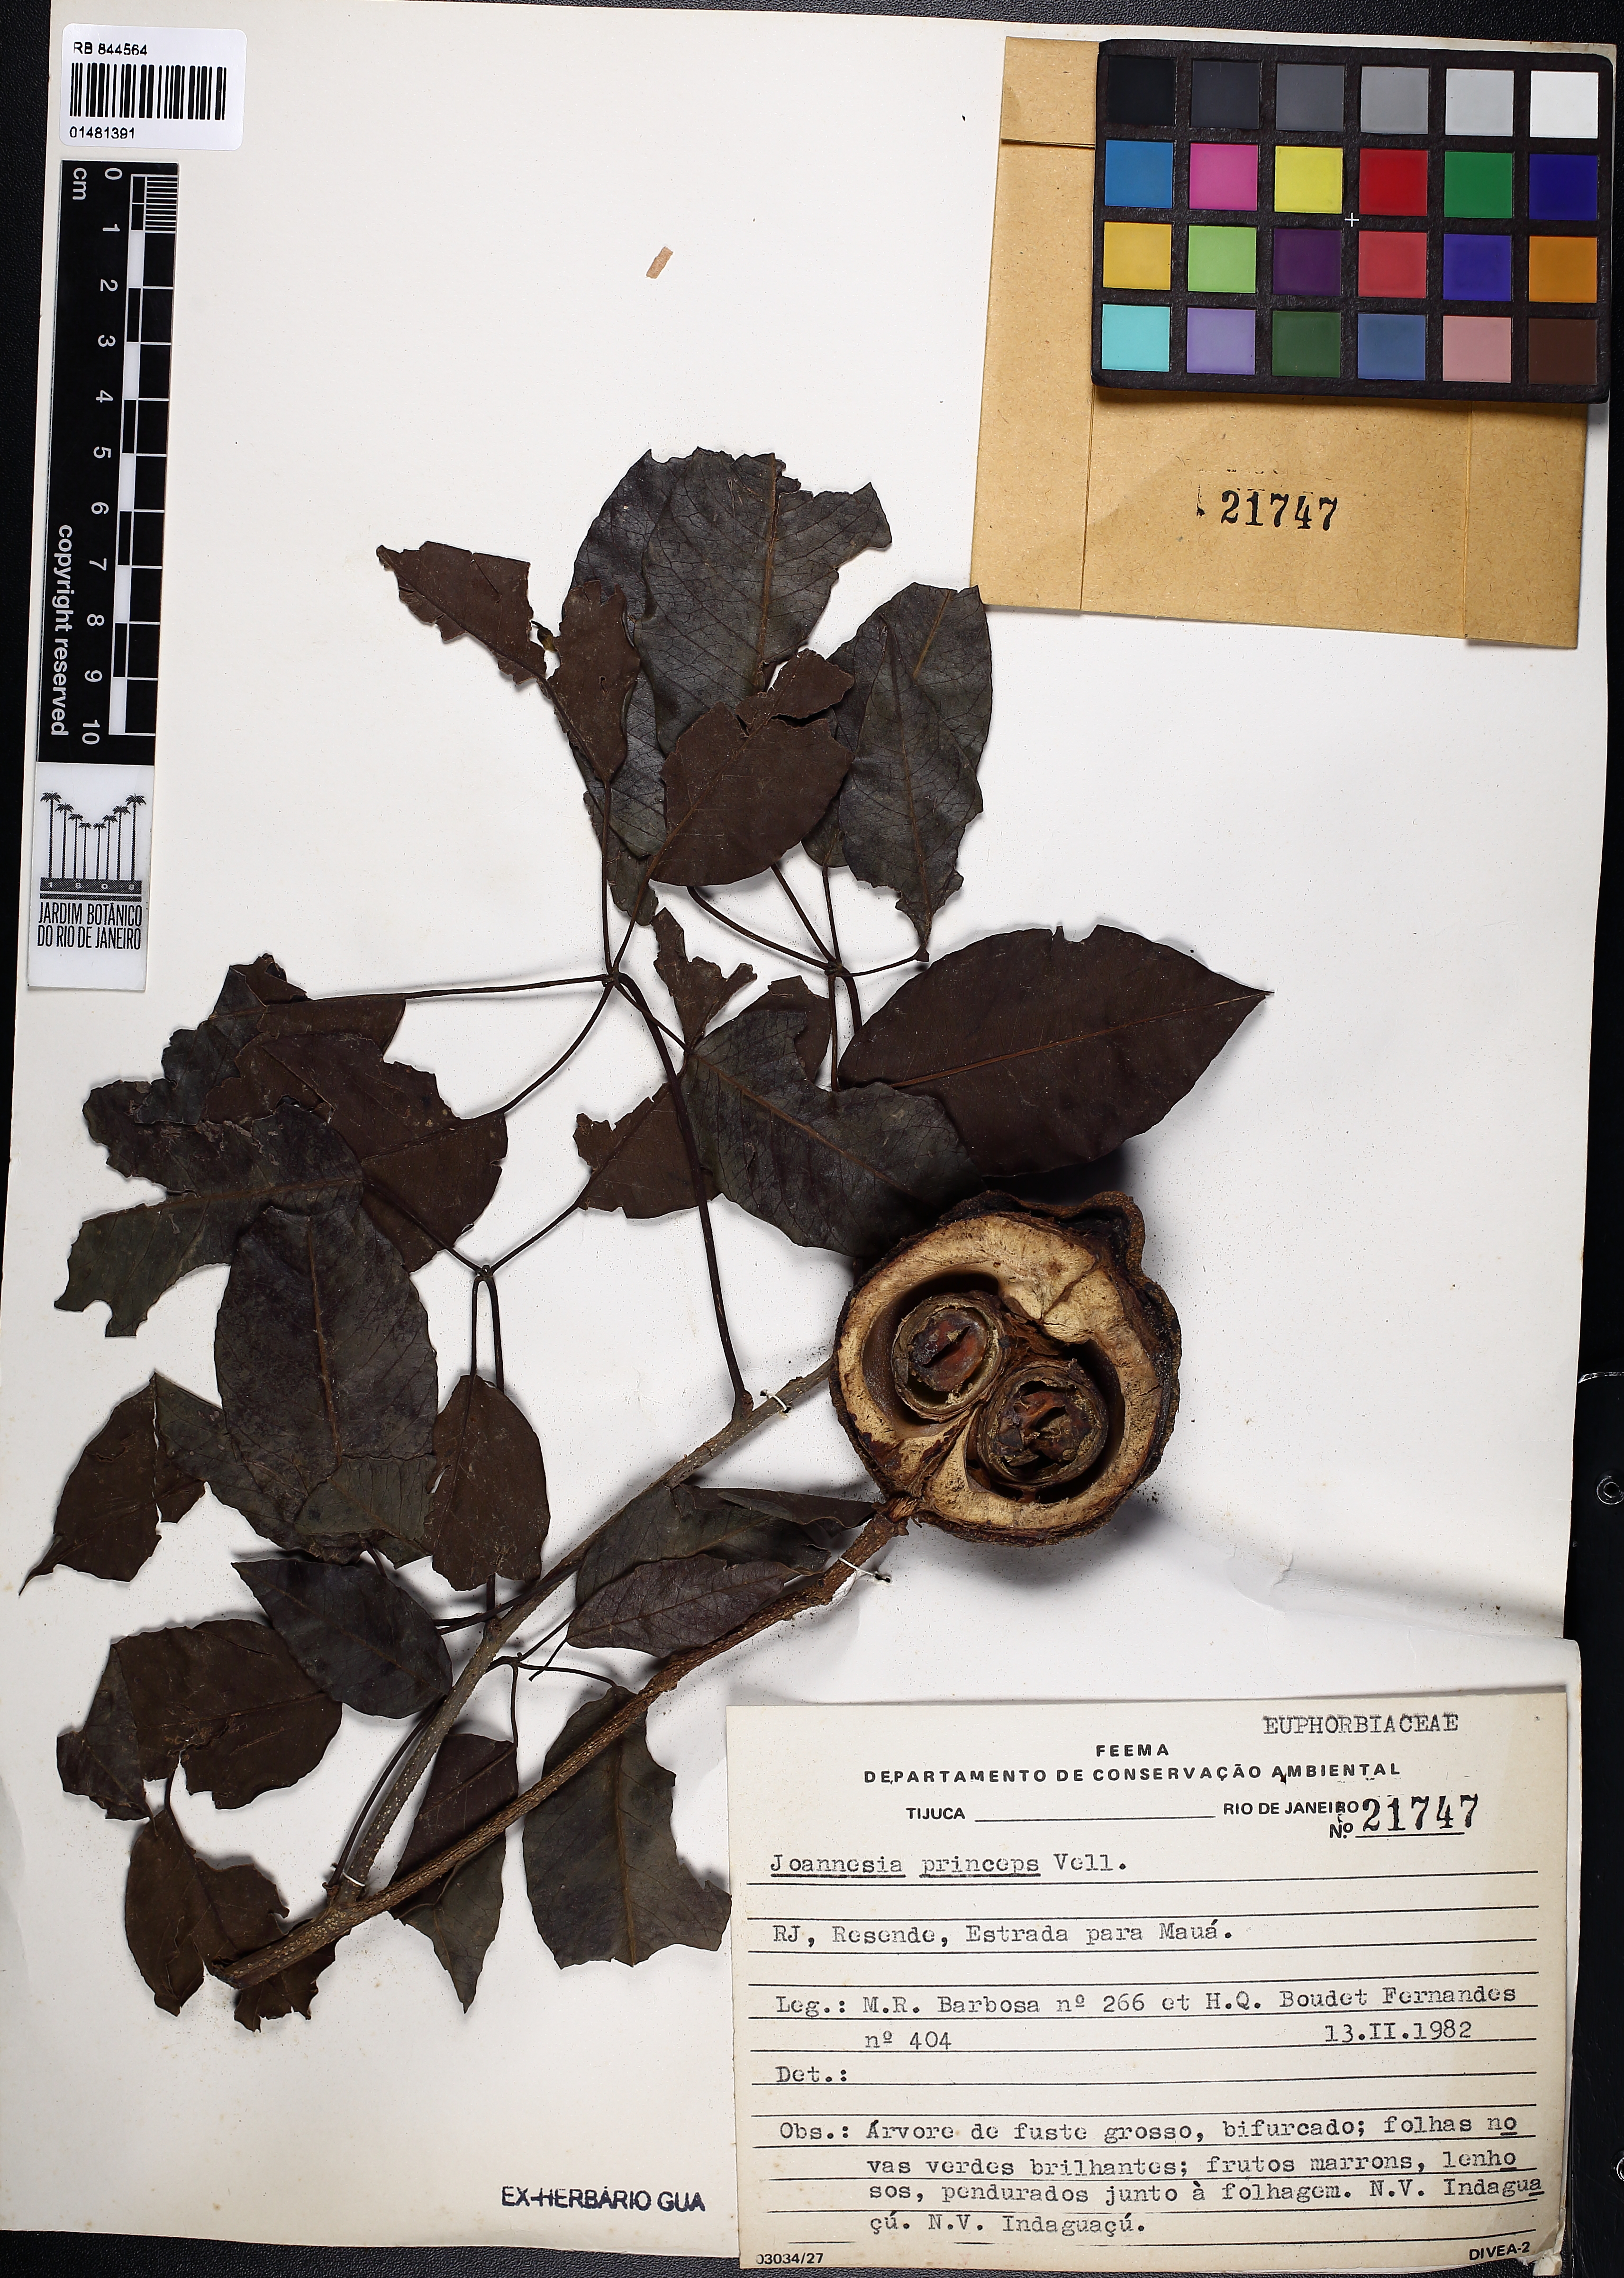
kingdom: Plantae
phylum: Tracheophyta
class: Magnoliopsida
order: Malpighiales
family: Euphorbiaceae
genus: Joannesia
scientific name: Joannesia princeps
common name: Arara nut-tree
